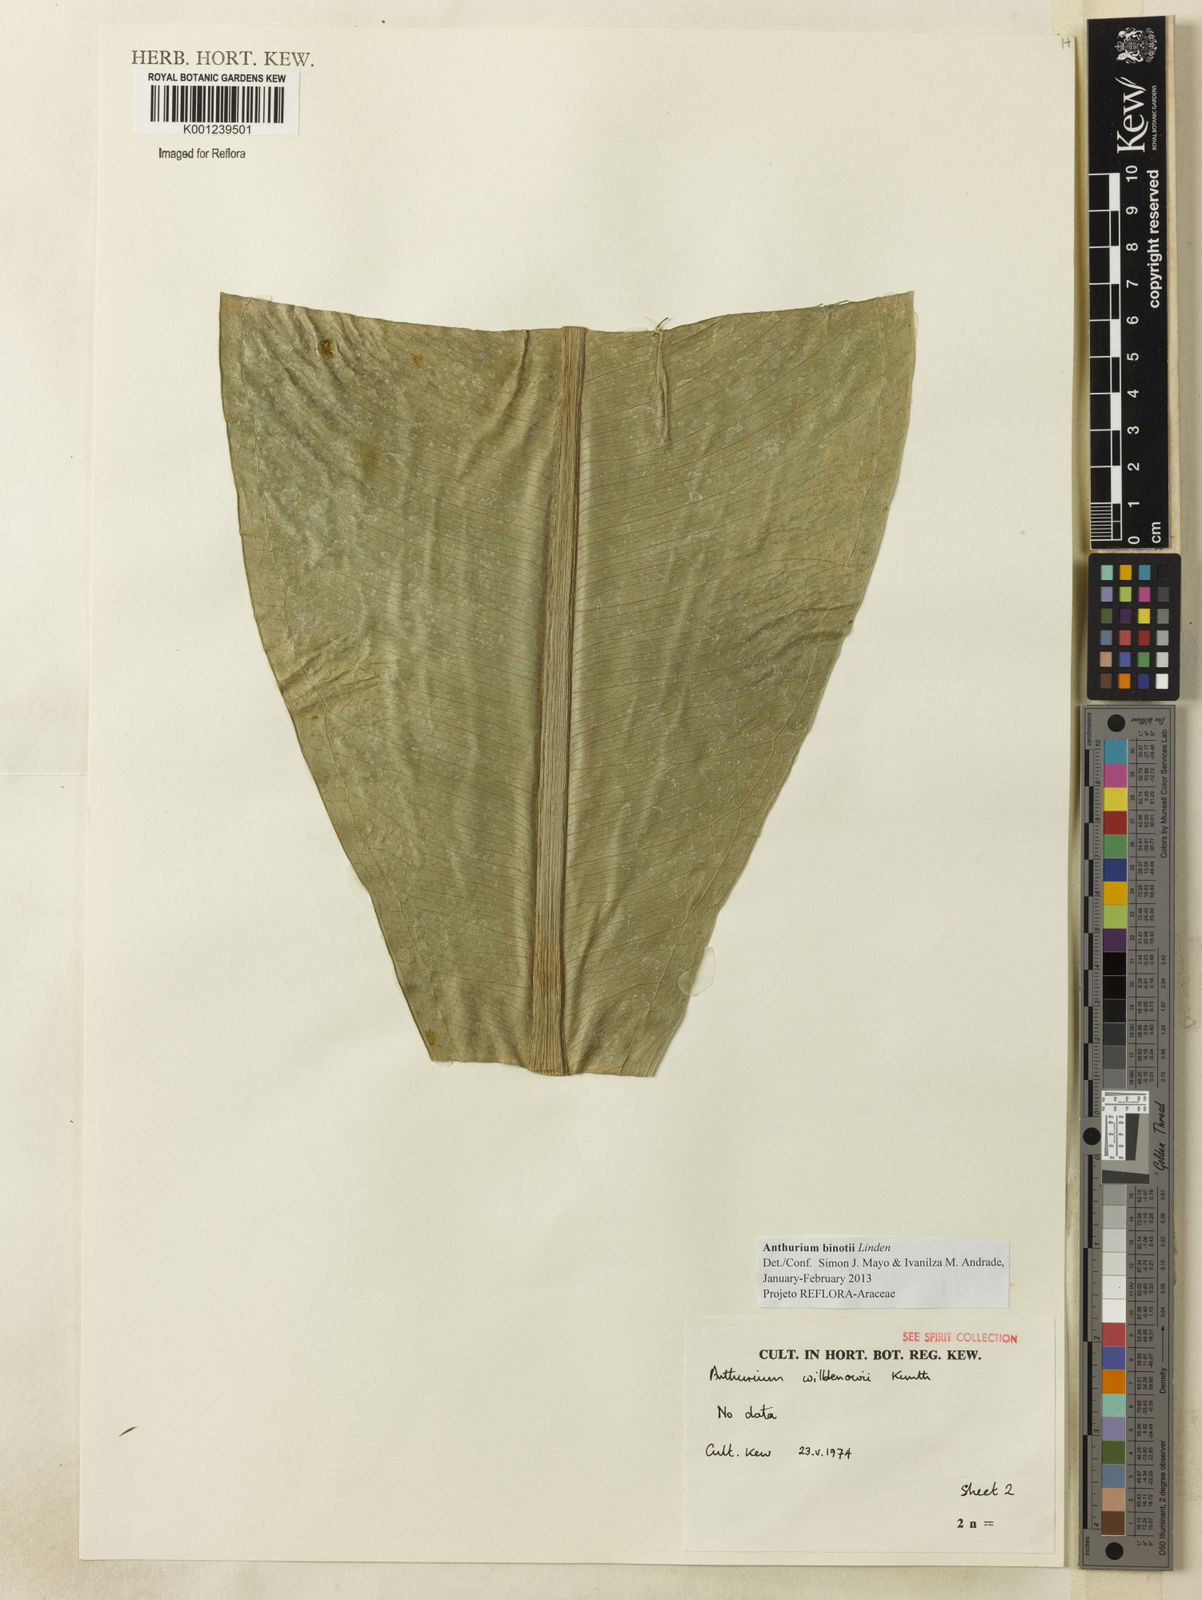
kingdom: Plantae
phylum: Tracheophyta
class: Liliopsida
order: Alismatales
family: Araceae
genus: Anthurium
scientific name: Anthurium binotii
